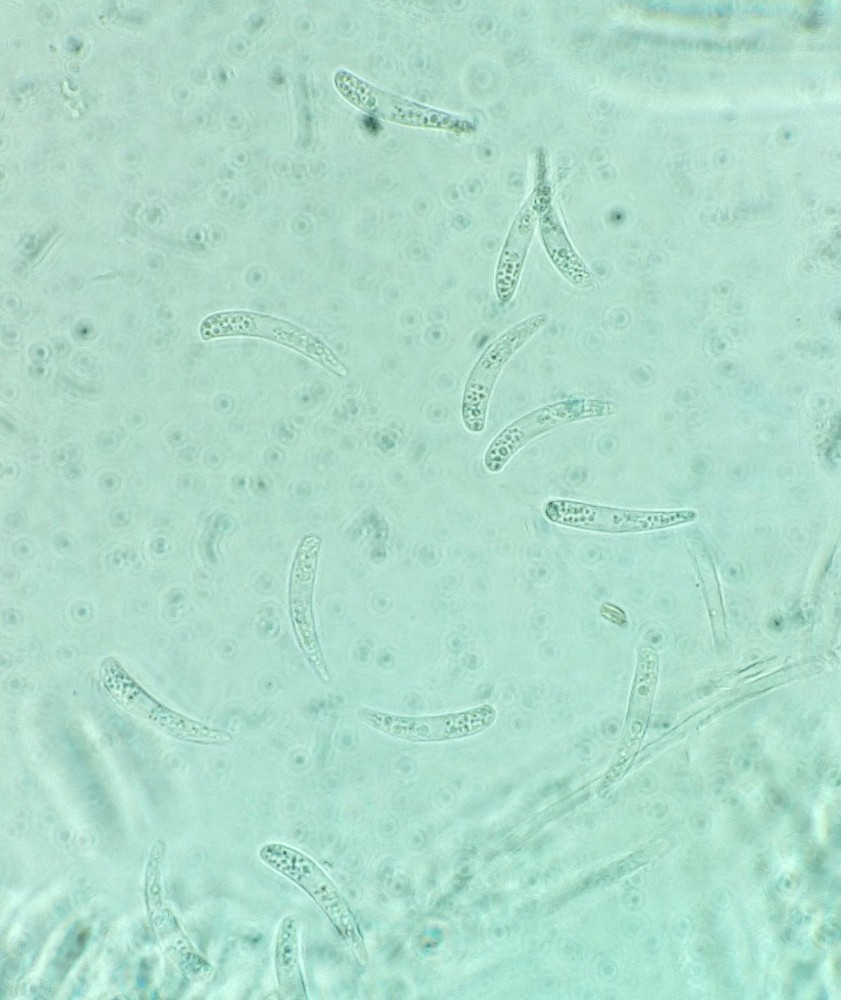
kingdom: Fungi
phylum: Ascomycota
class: Leotiomycetes
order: Helotiales
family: Helotiaceae
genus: Hymenoscyphus
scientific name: Hymenoscyphus serotinus
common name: krumsporet stilkskive
